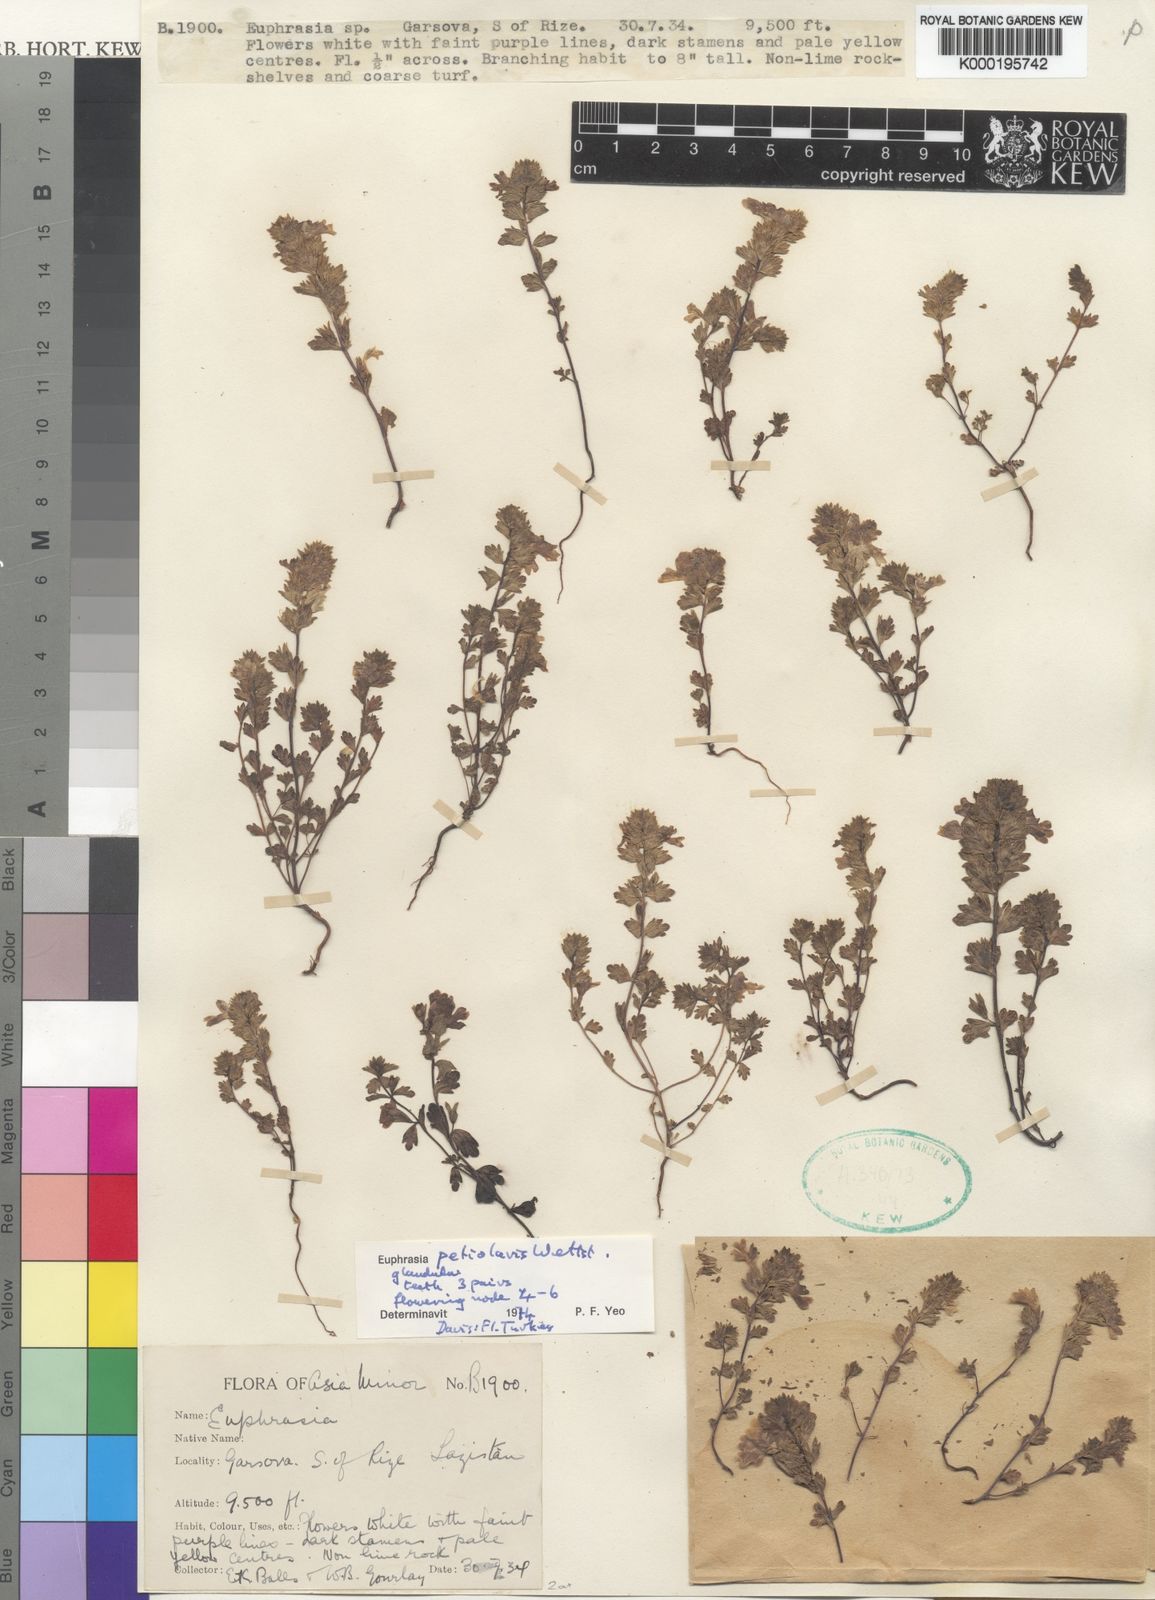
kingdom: Plantae
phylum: Tracheophyta
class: Magnoliopsida
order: Lamiales
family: Orobanchaceae
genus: Euphrasia
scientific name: Euphrasia petiolaris
